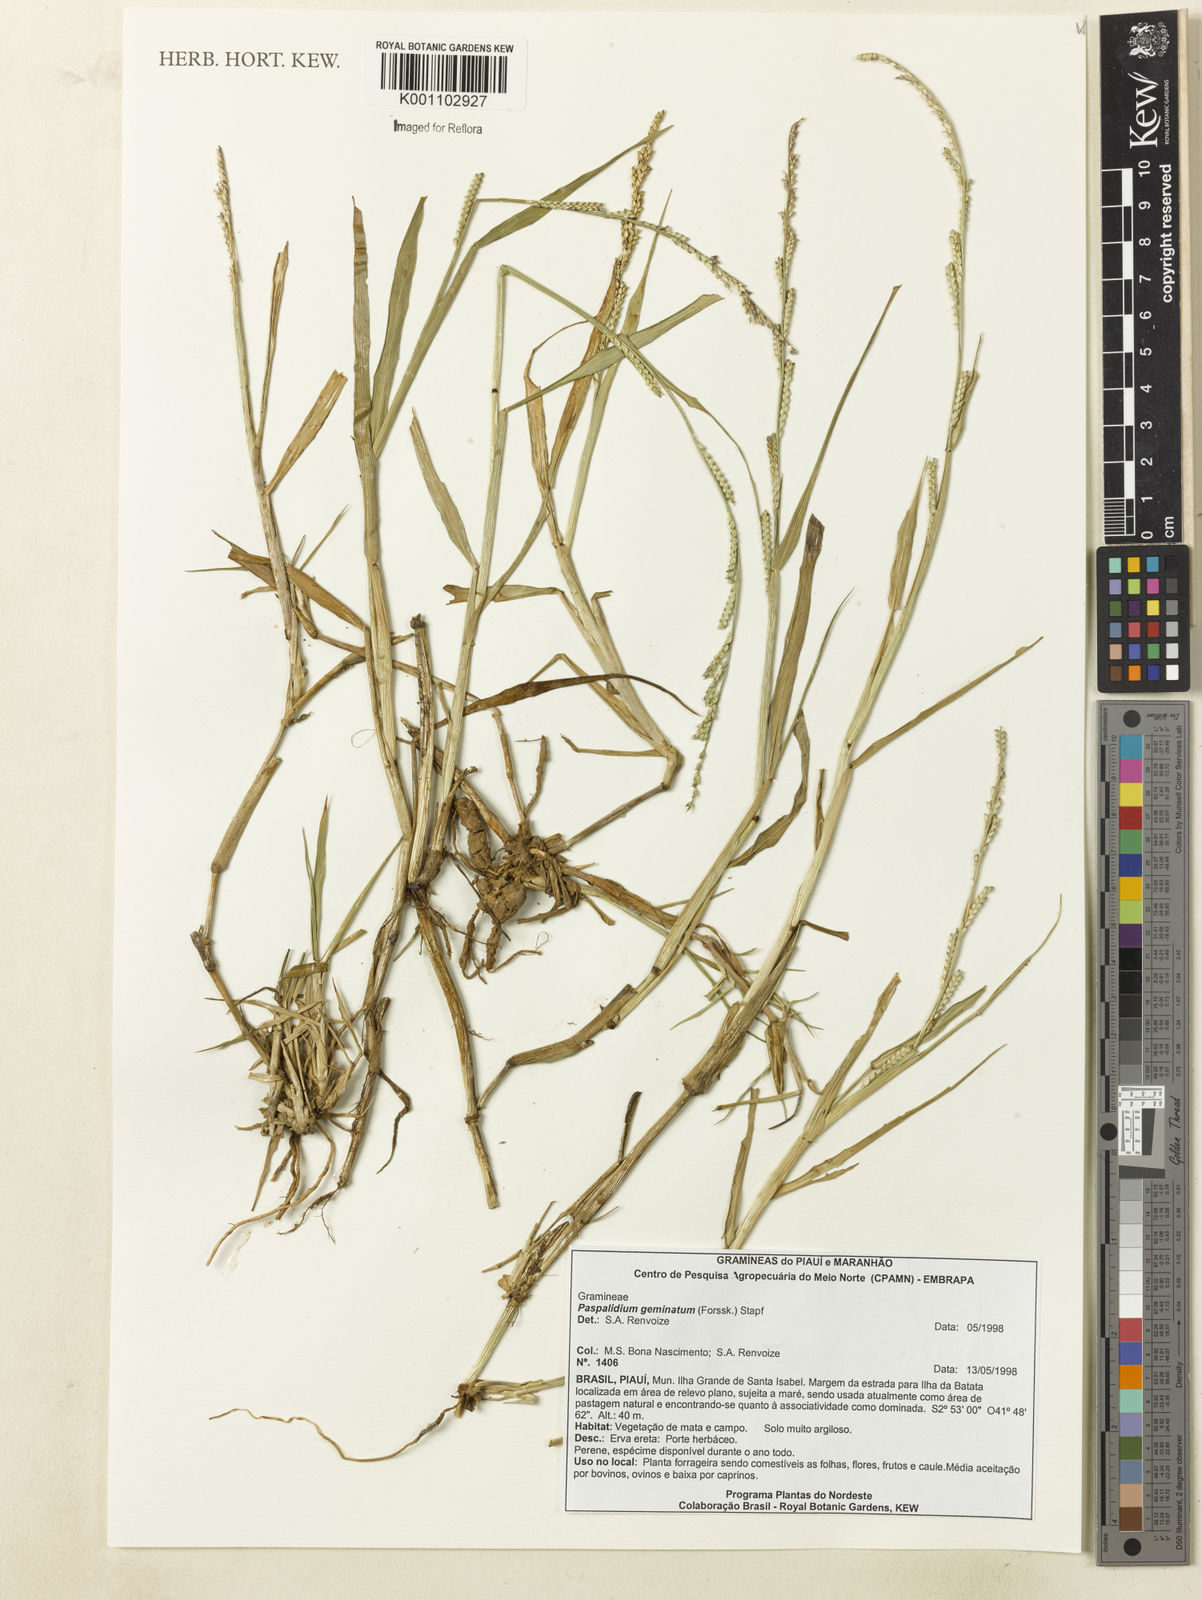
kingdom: Plantae
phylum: Tracheophyta
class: Liliopsida
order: Poales
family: Poaceae
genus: Setaria
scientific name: Setaria geminata
